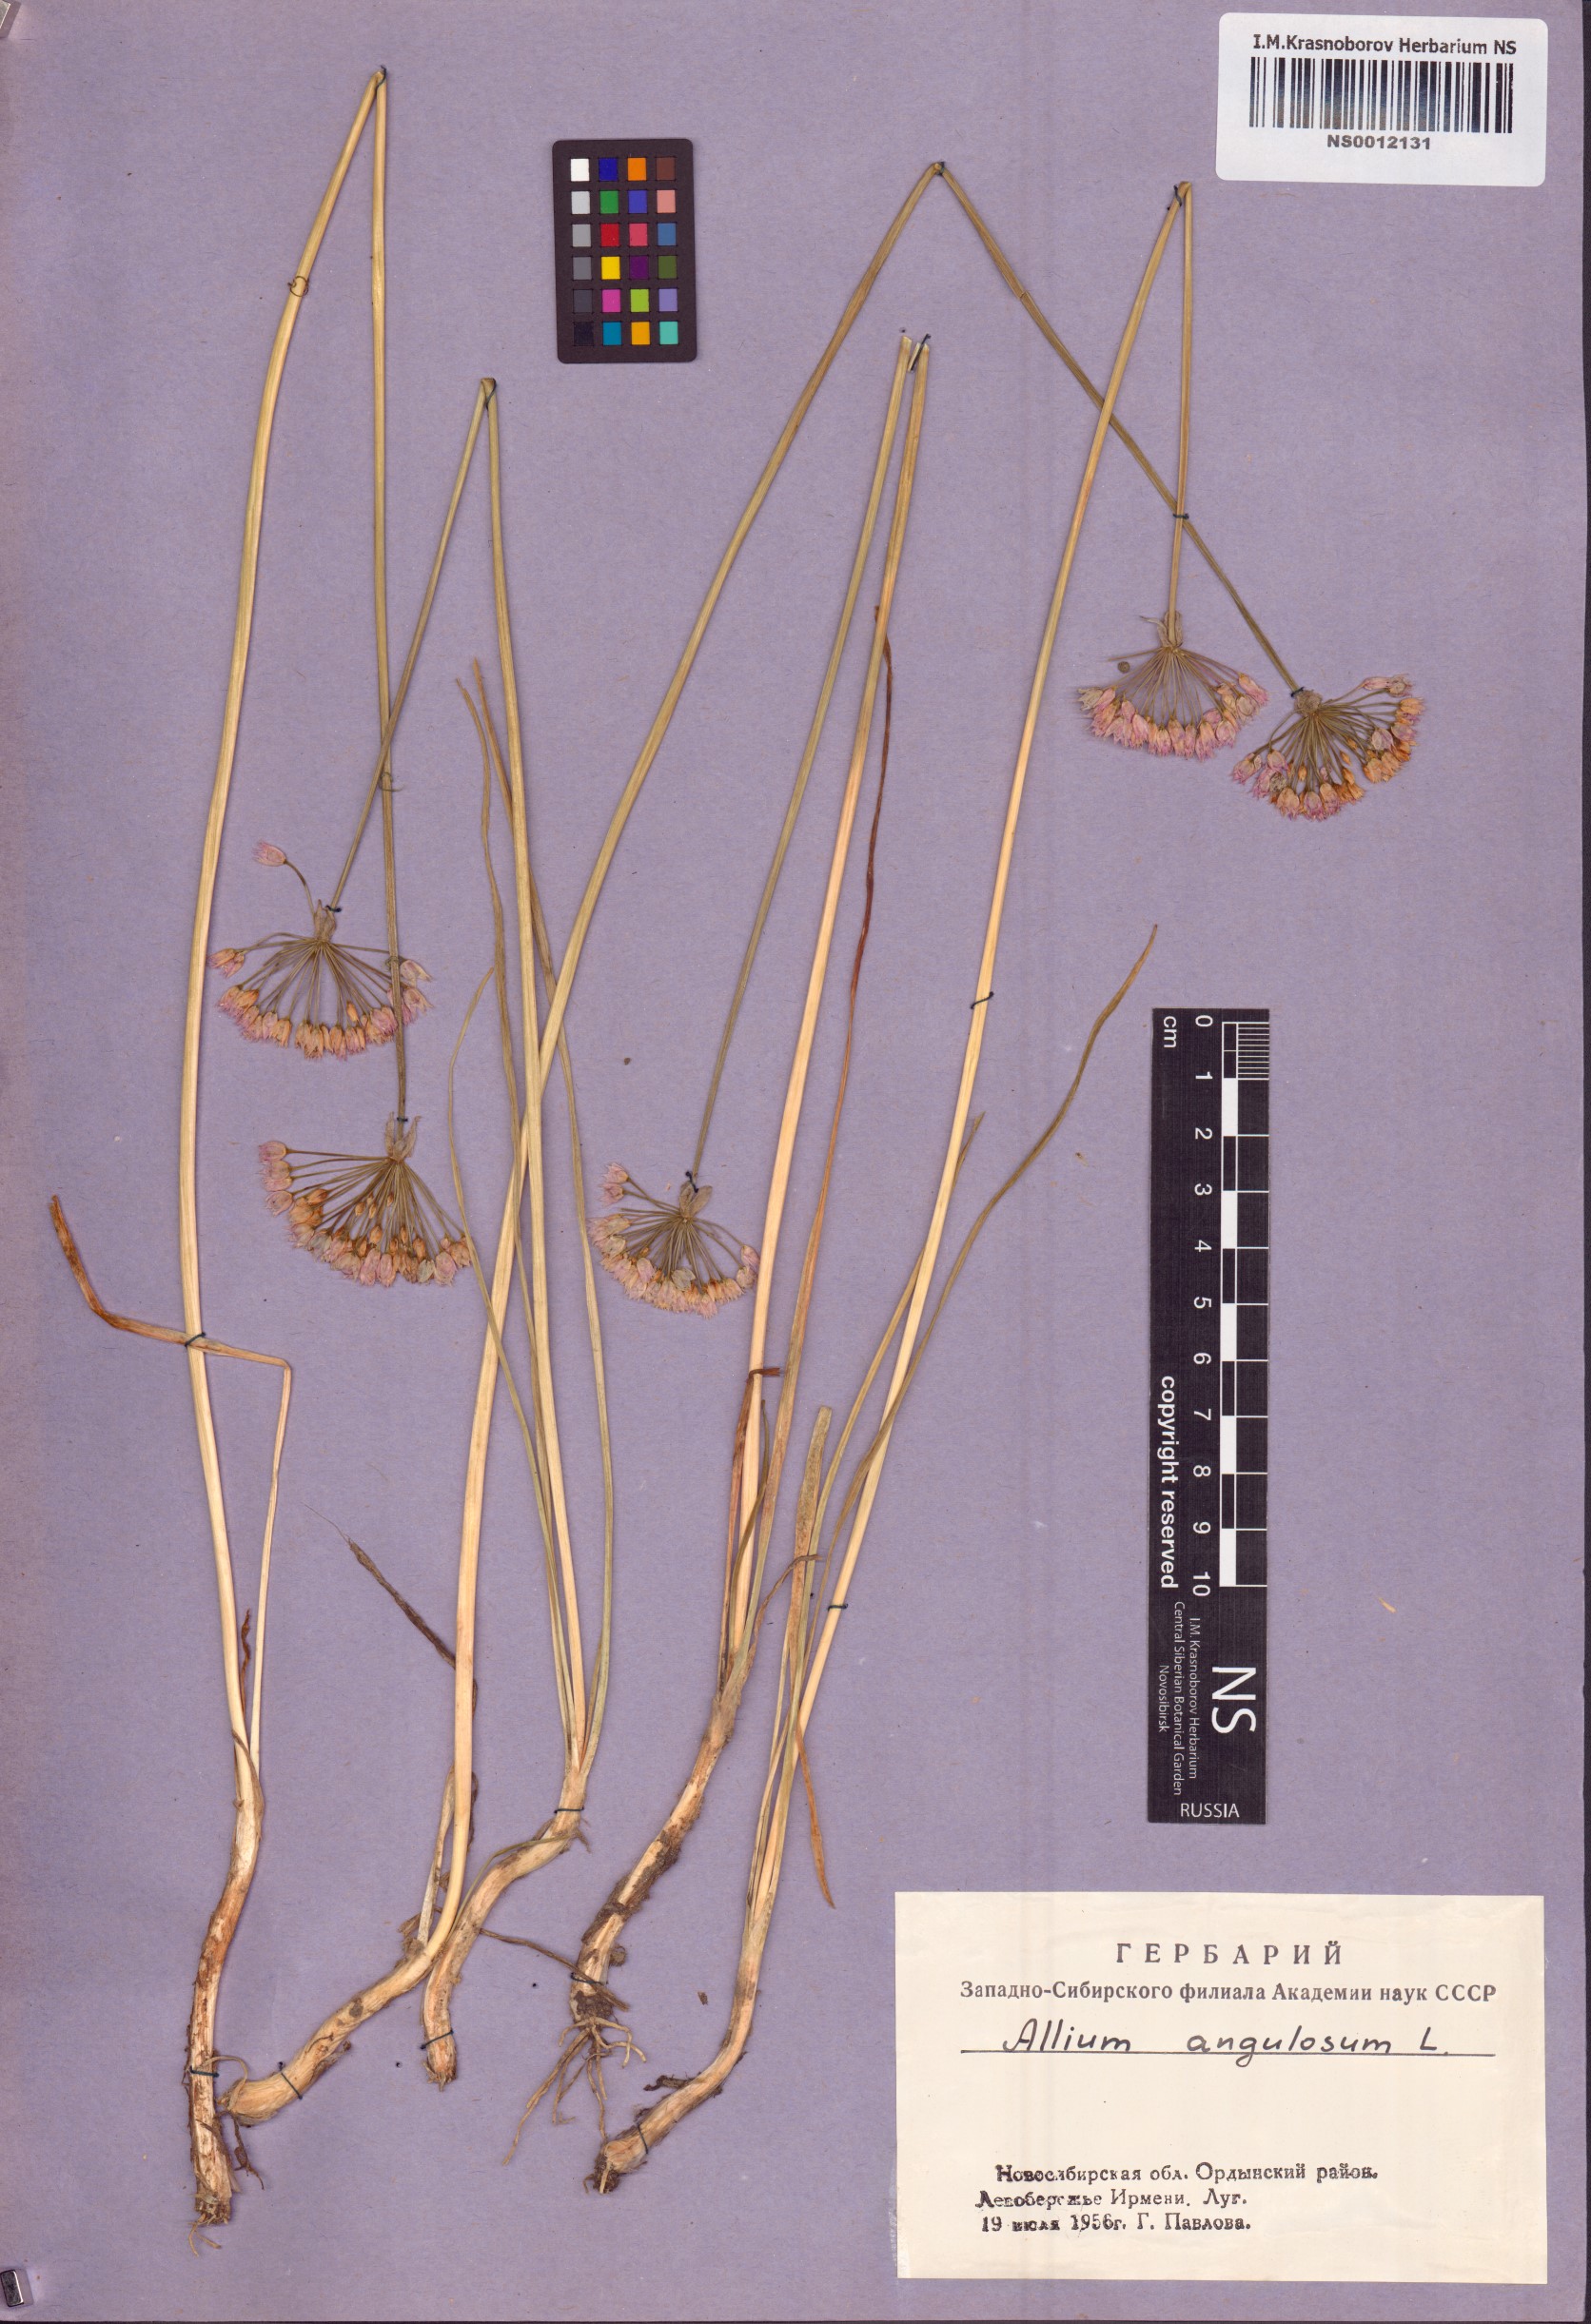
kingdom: Plantae
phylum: Tracheophyta
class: Liliopsida
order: Asparagales
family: Amaryllidaceae
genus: Allium
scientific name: Allium angulosum
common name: Mouse garlic
